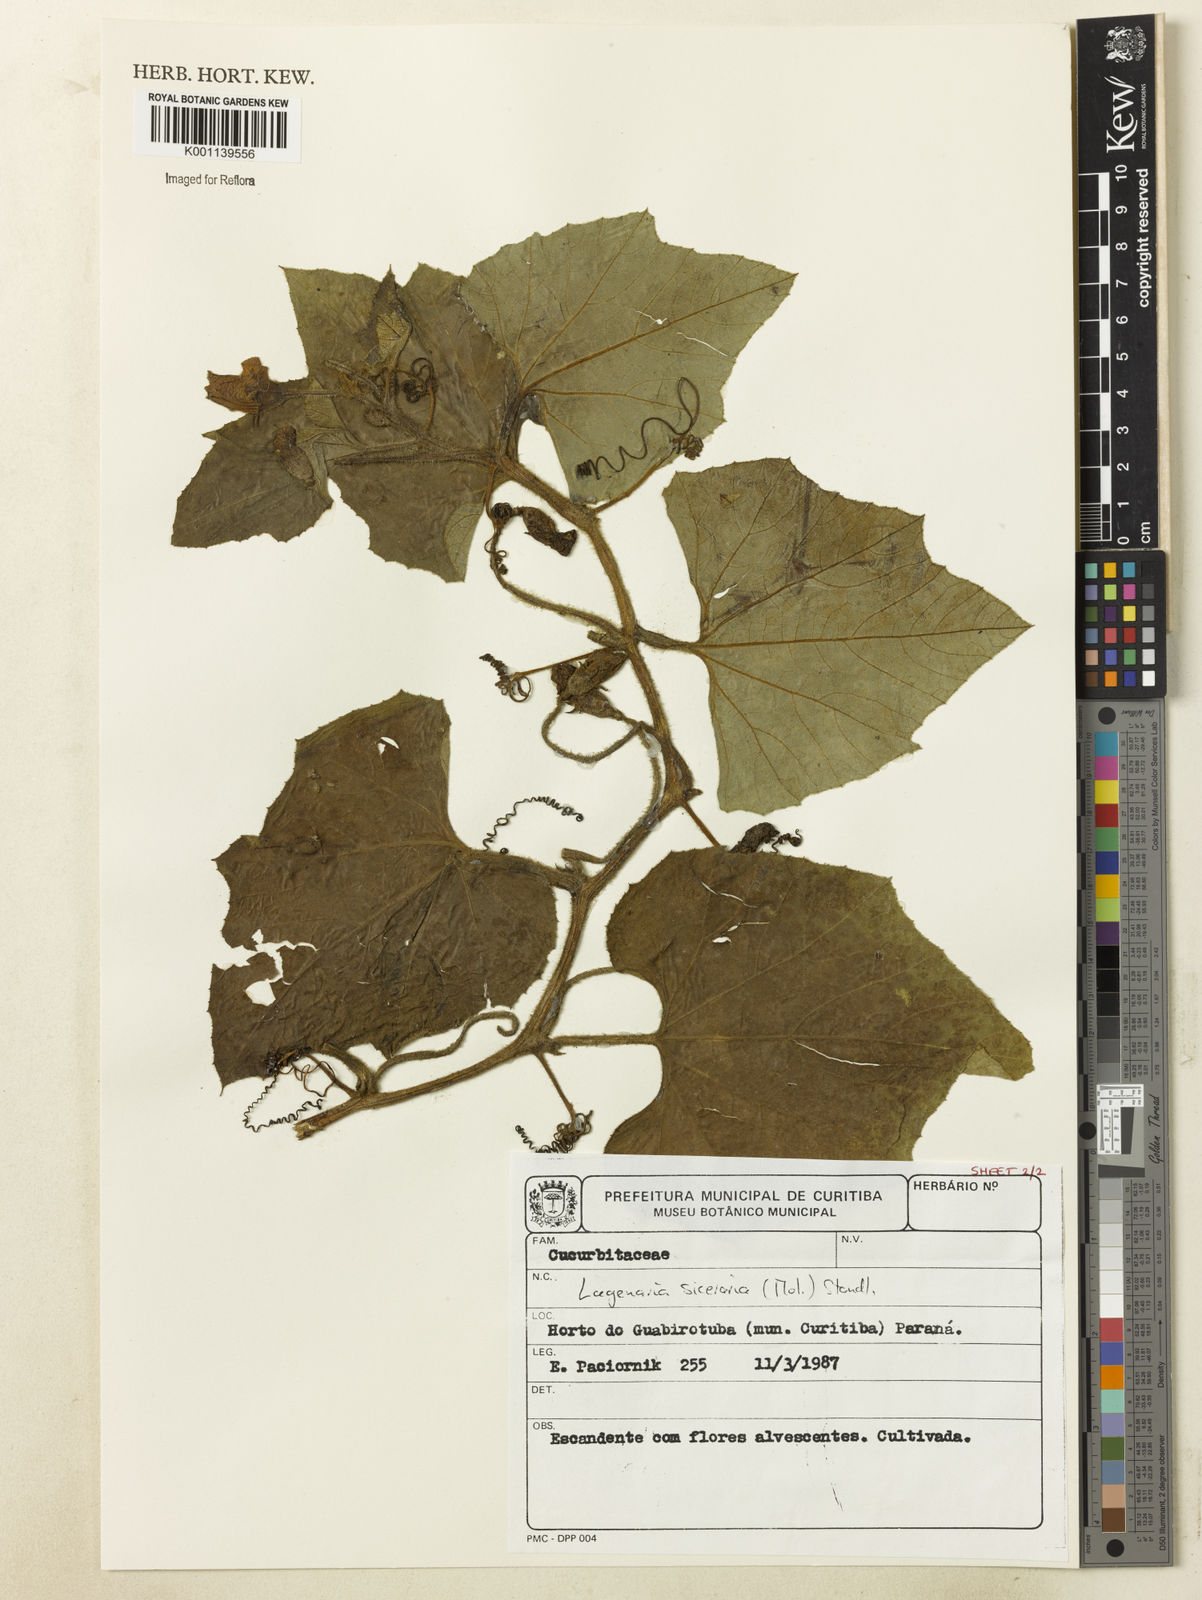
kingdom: Plantae
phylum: Tracheophyta
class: Magnoliopsida
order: Cucurbitales
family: Cucurbitaceae
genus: Lagenaria
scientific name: Lagenaria siceraria
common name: Bottle gourd
